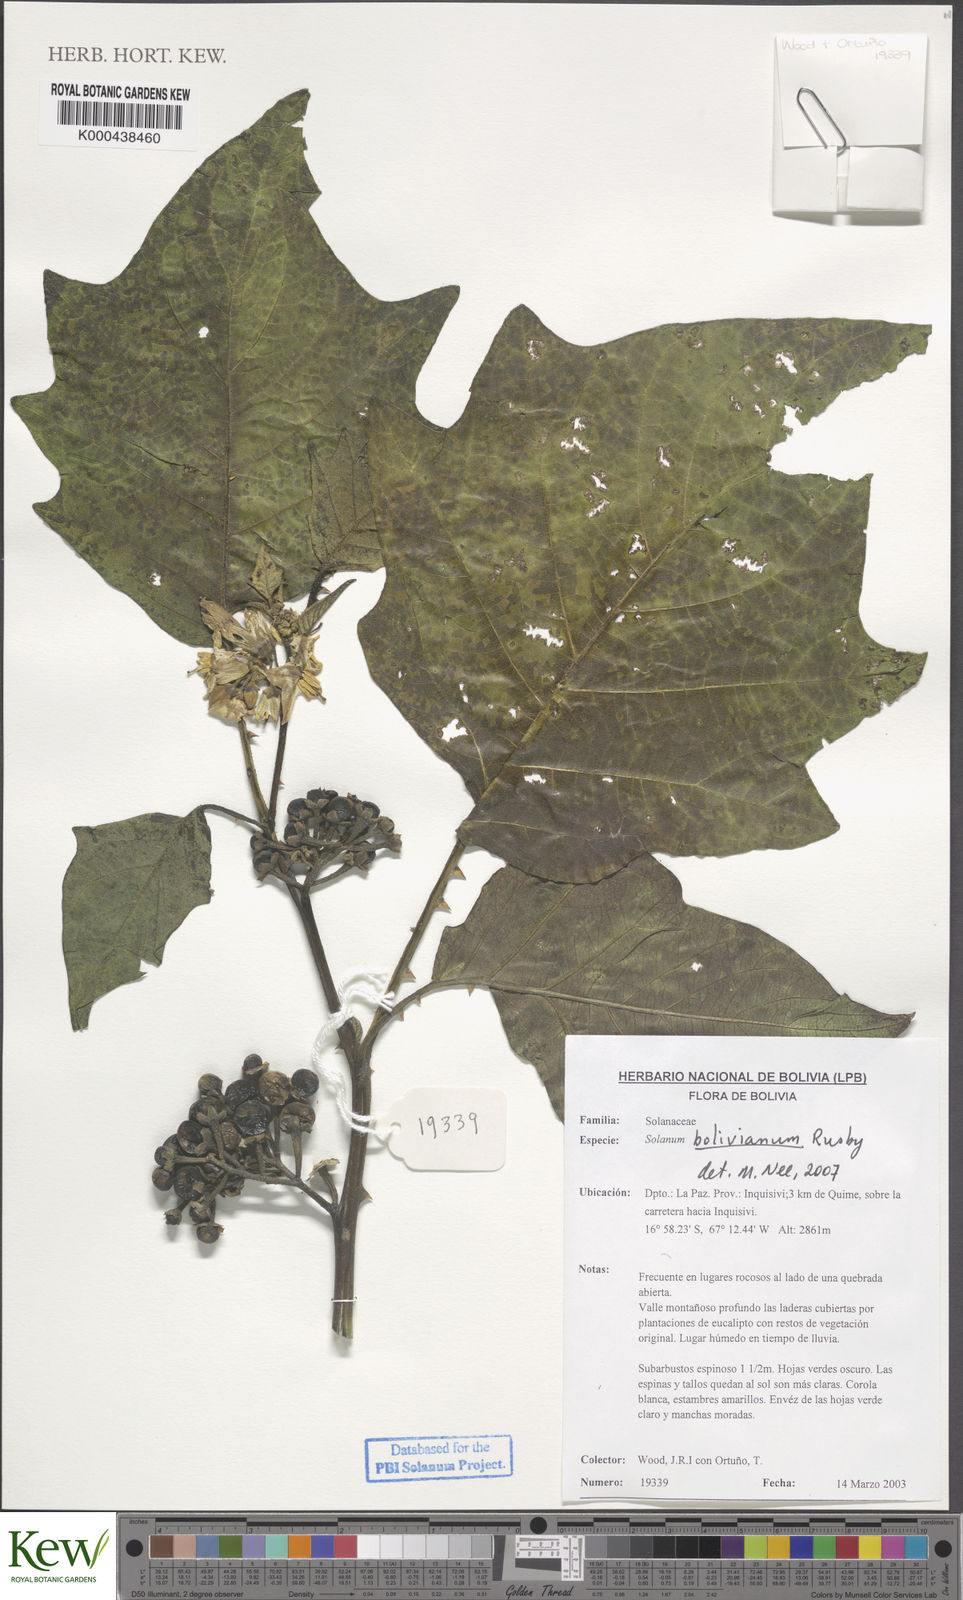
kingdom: Plantae
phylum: Tracheophyta
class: Magnoliopsida
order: Solanales
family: Solanaceae
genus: Solanum
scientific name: Solanum bolivianum
